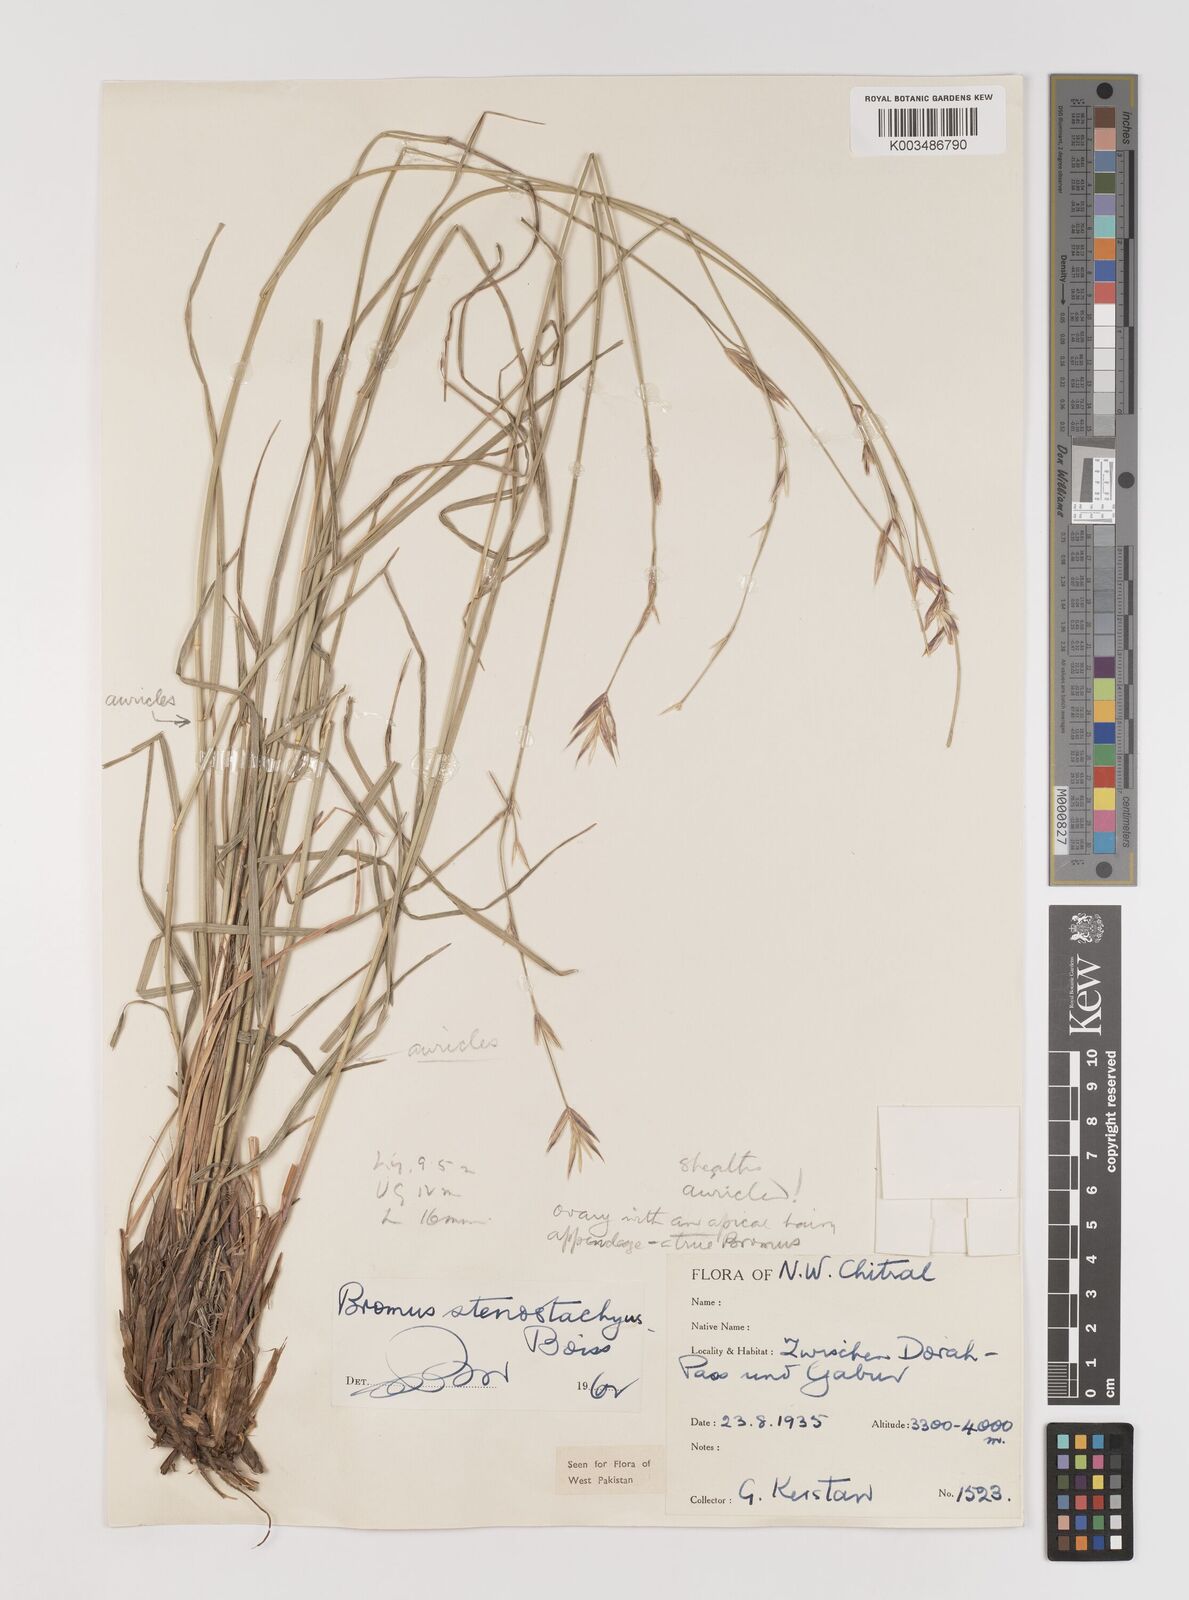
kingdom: Plantae
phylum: Tracheophyta
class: Liliopsida
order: Poales
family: Poaceae
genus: Bromus
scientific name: Bromus stenostachyus
